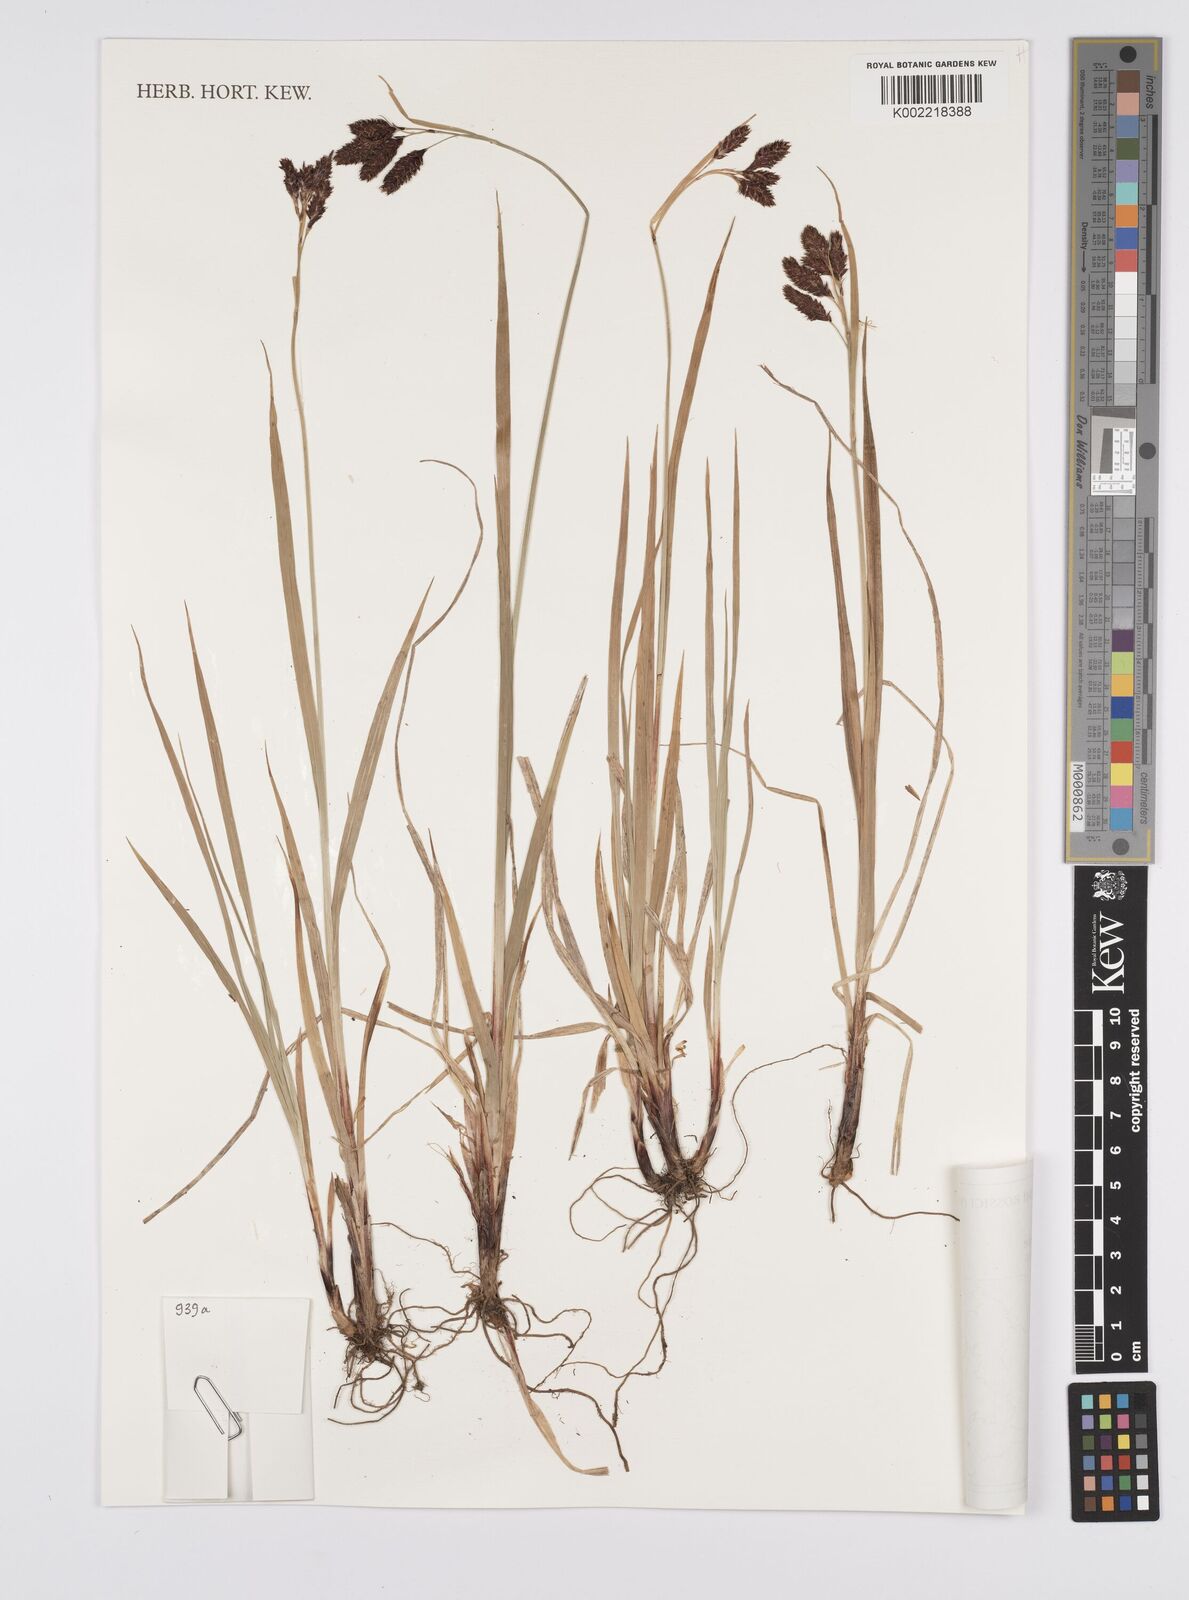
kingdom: Plantae
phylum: Tracheophyta
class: Liliopsida
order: Poales
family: Cyperaceae
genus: Carex
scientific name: Carex atrata
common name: Black alpine sedge
